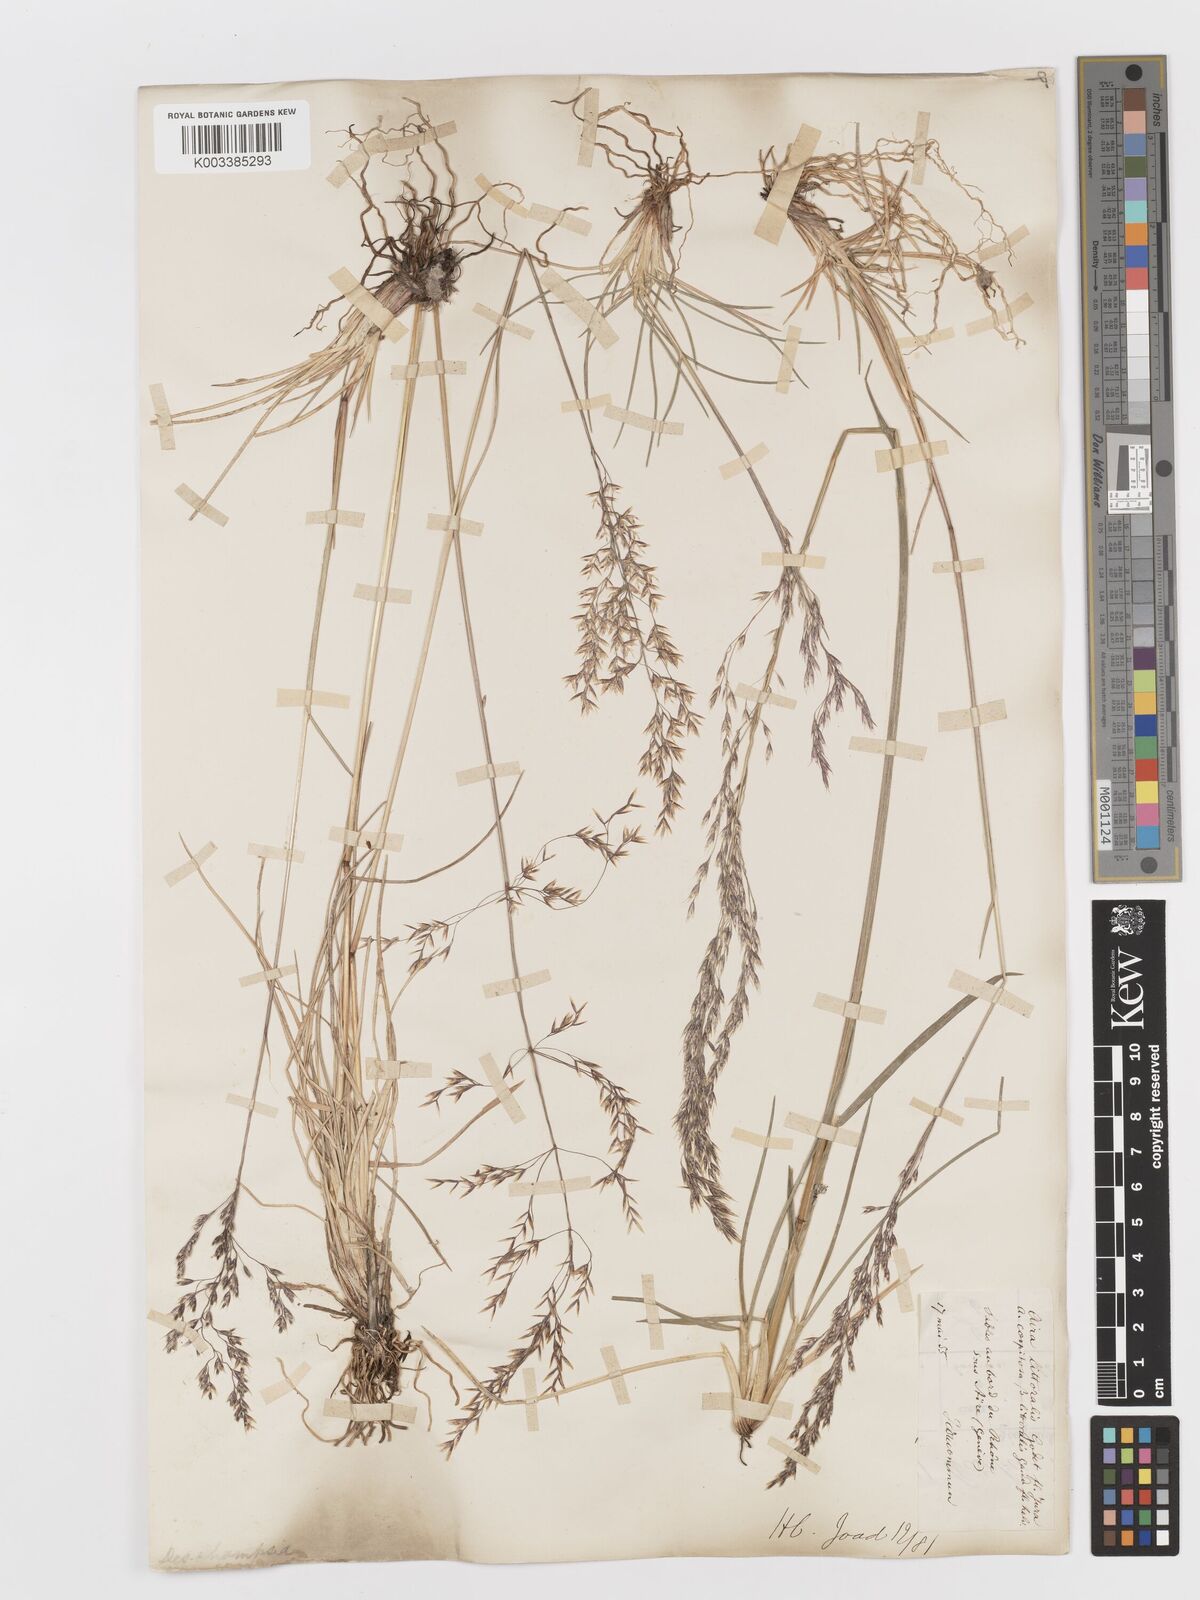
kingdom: Plantae
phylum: Tracheophyta
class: Liliopsida
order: Poales
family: Poaceae
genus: Deschampsia
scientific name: Deschampsia cespitosa
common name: Tufted hair-grass
